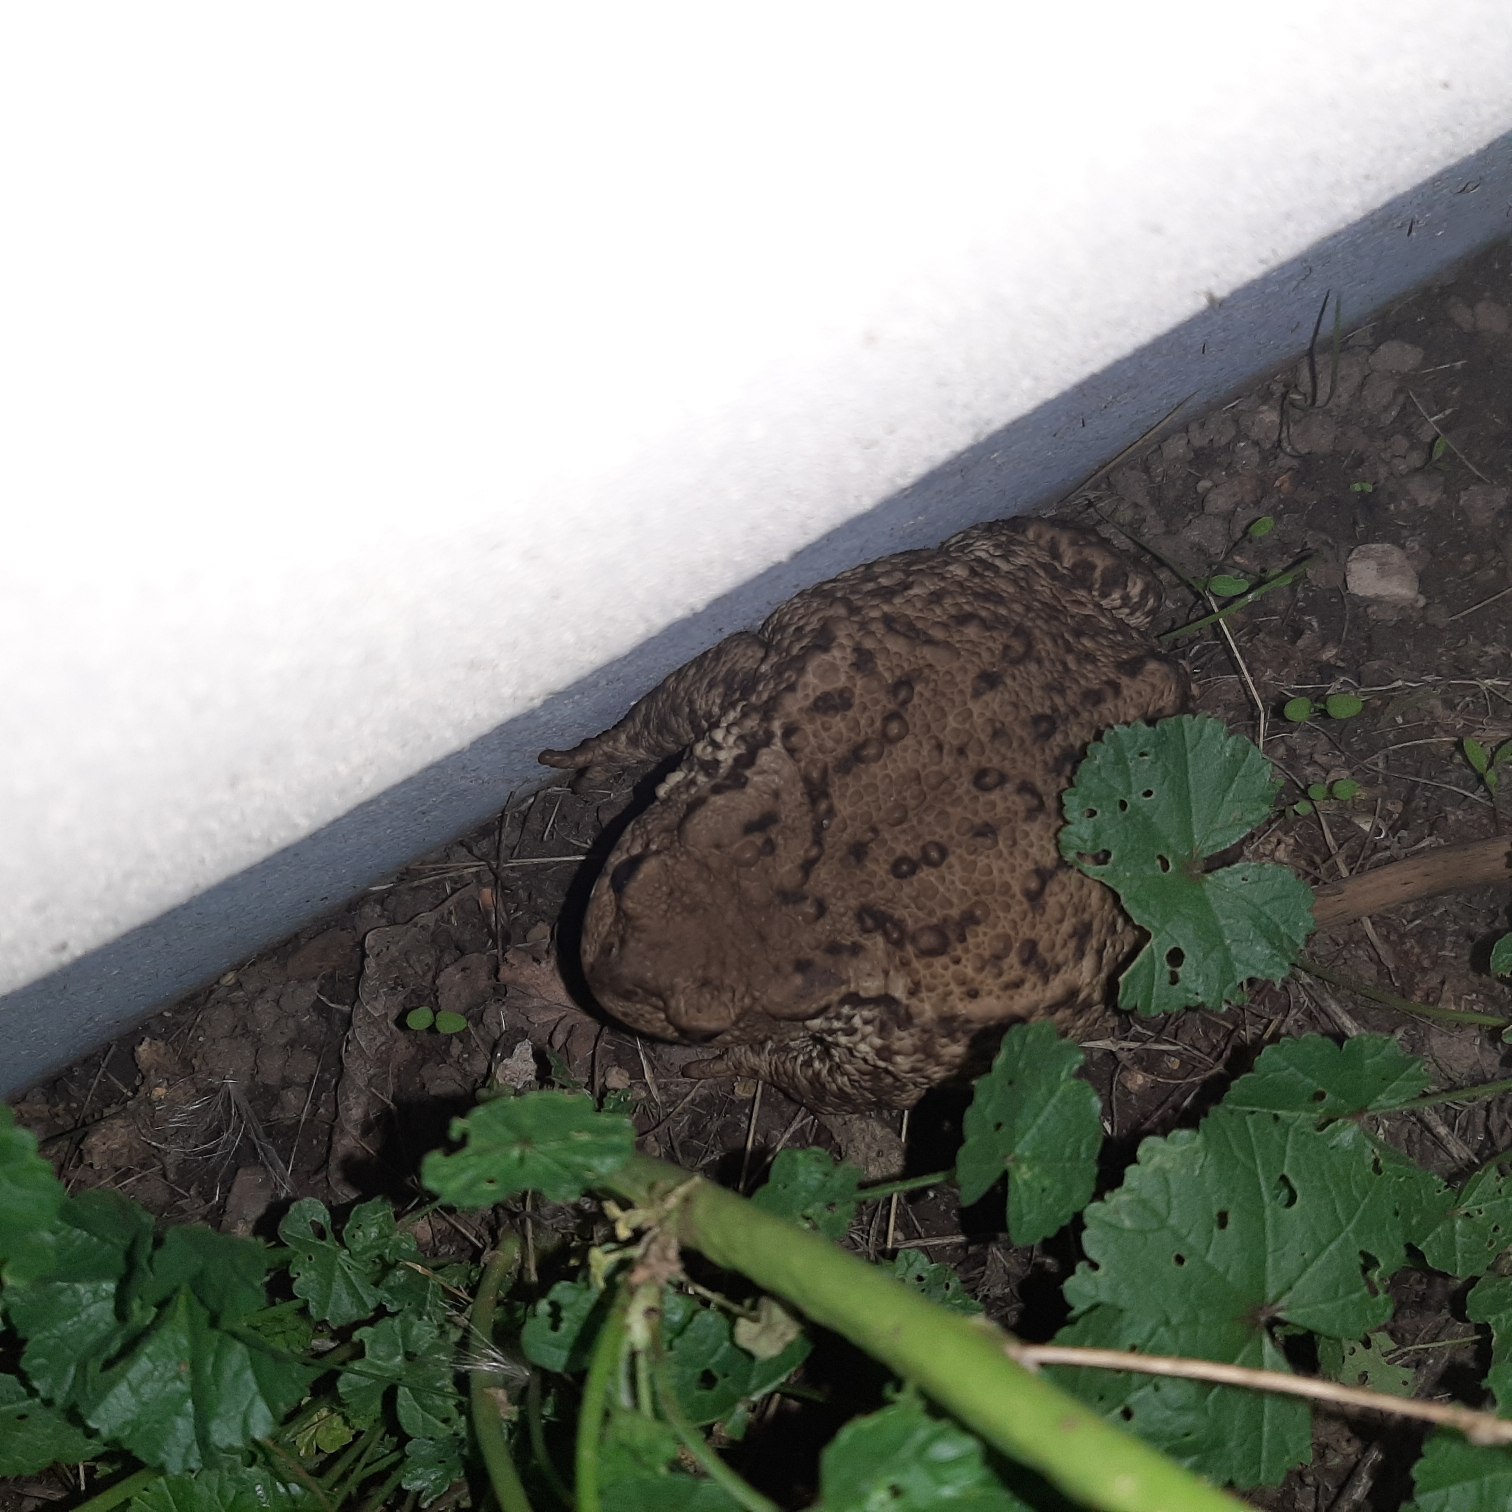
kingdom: Animalia
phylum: Chordata
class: Amphibia
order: Anura
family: Bufonidae
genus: Bufo
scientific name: Bufo bufo
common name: Skrubtudse
